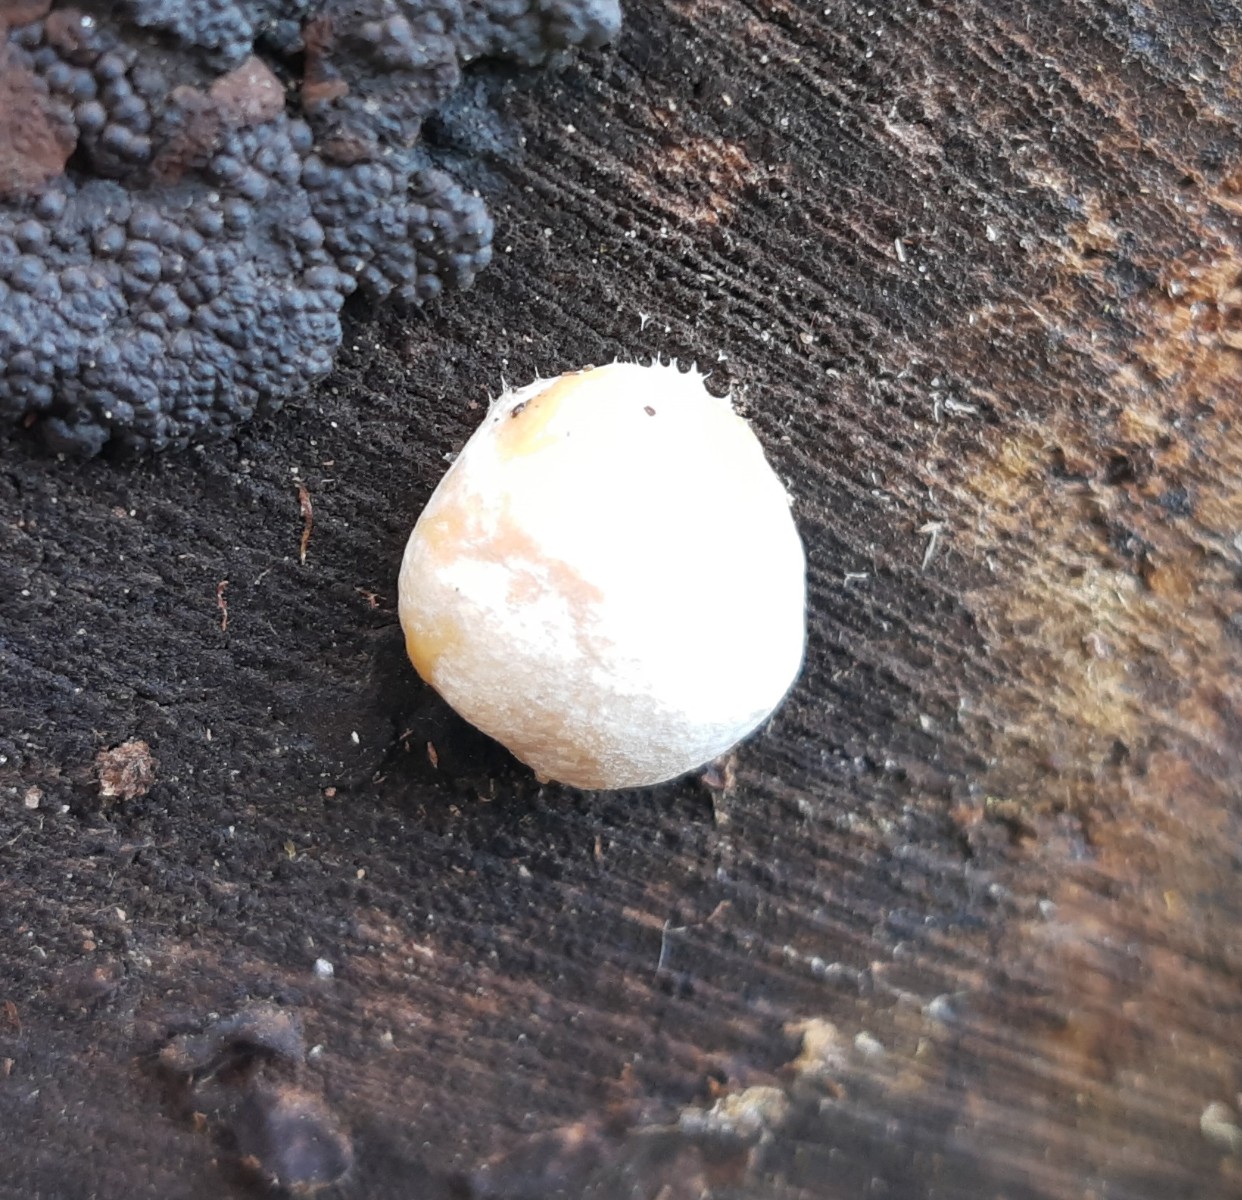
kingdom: Protozoa
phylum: Mycetozoa
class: Myxomycetes
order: Cribrariales
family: Tubiferaceae
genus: Reticularia
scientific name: Reticularia lycoperdon
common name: skinnende støvpude
